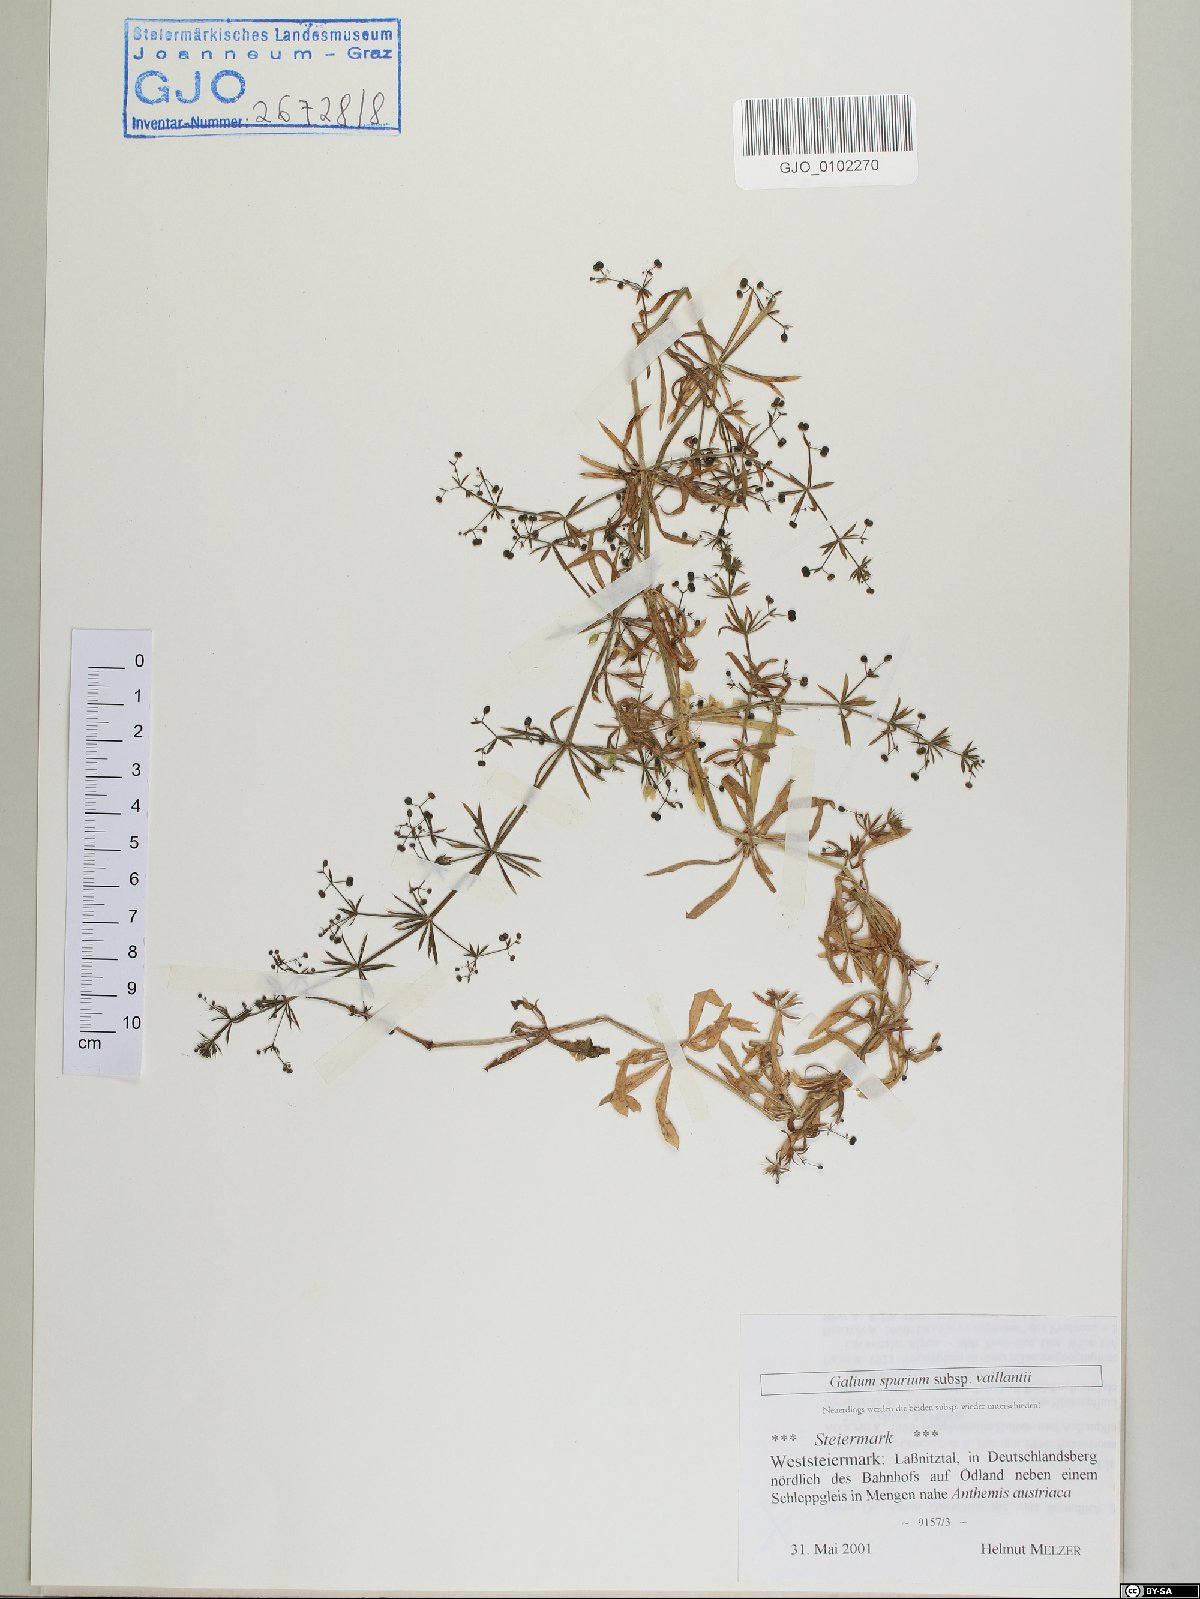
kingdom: Plantae
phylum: Tracheophyta
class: Magnoliopsida
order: Gentianales
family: Rubiaceae
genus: Galium
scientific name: Galium spurium
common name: False cleavers
